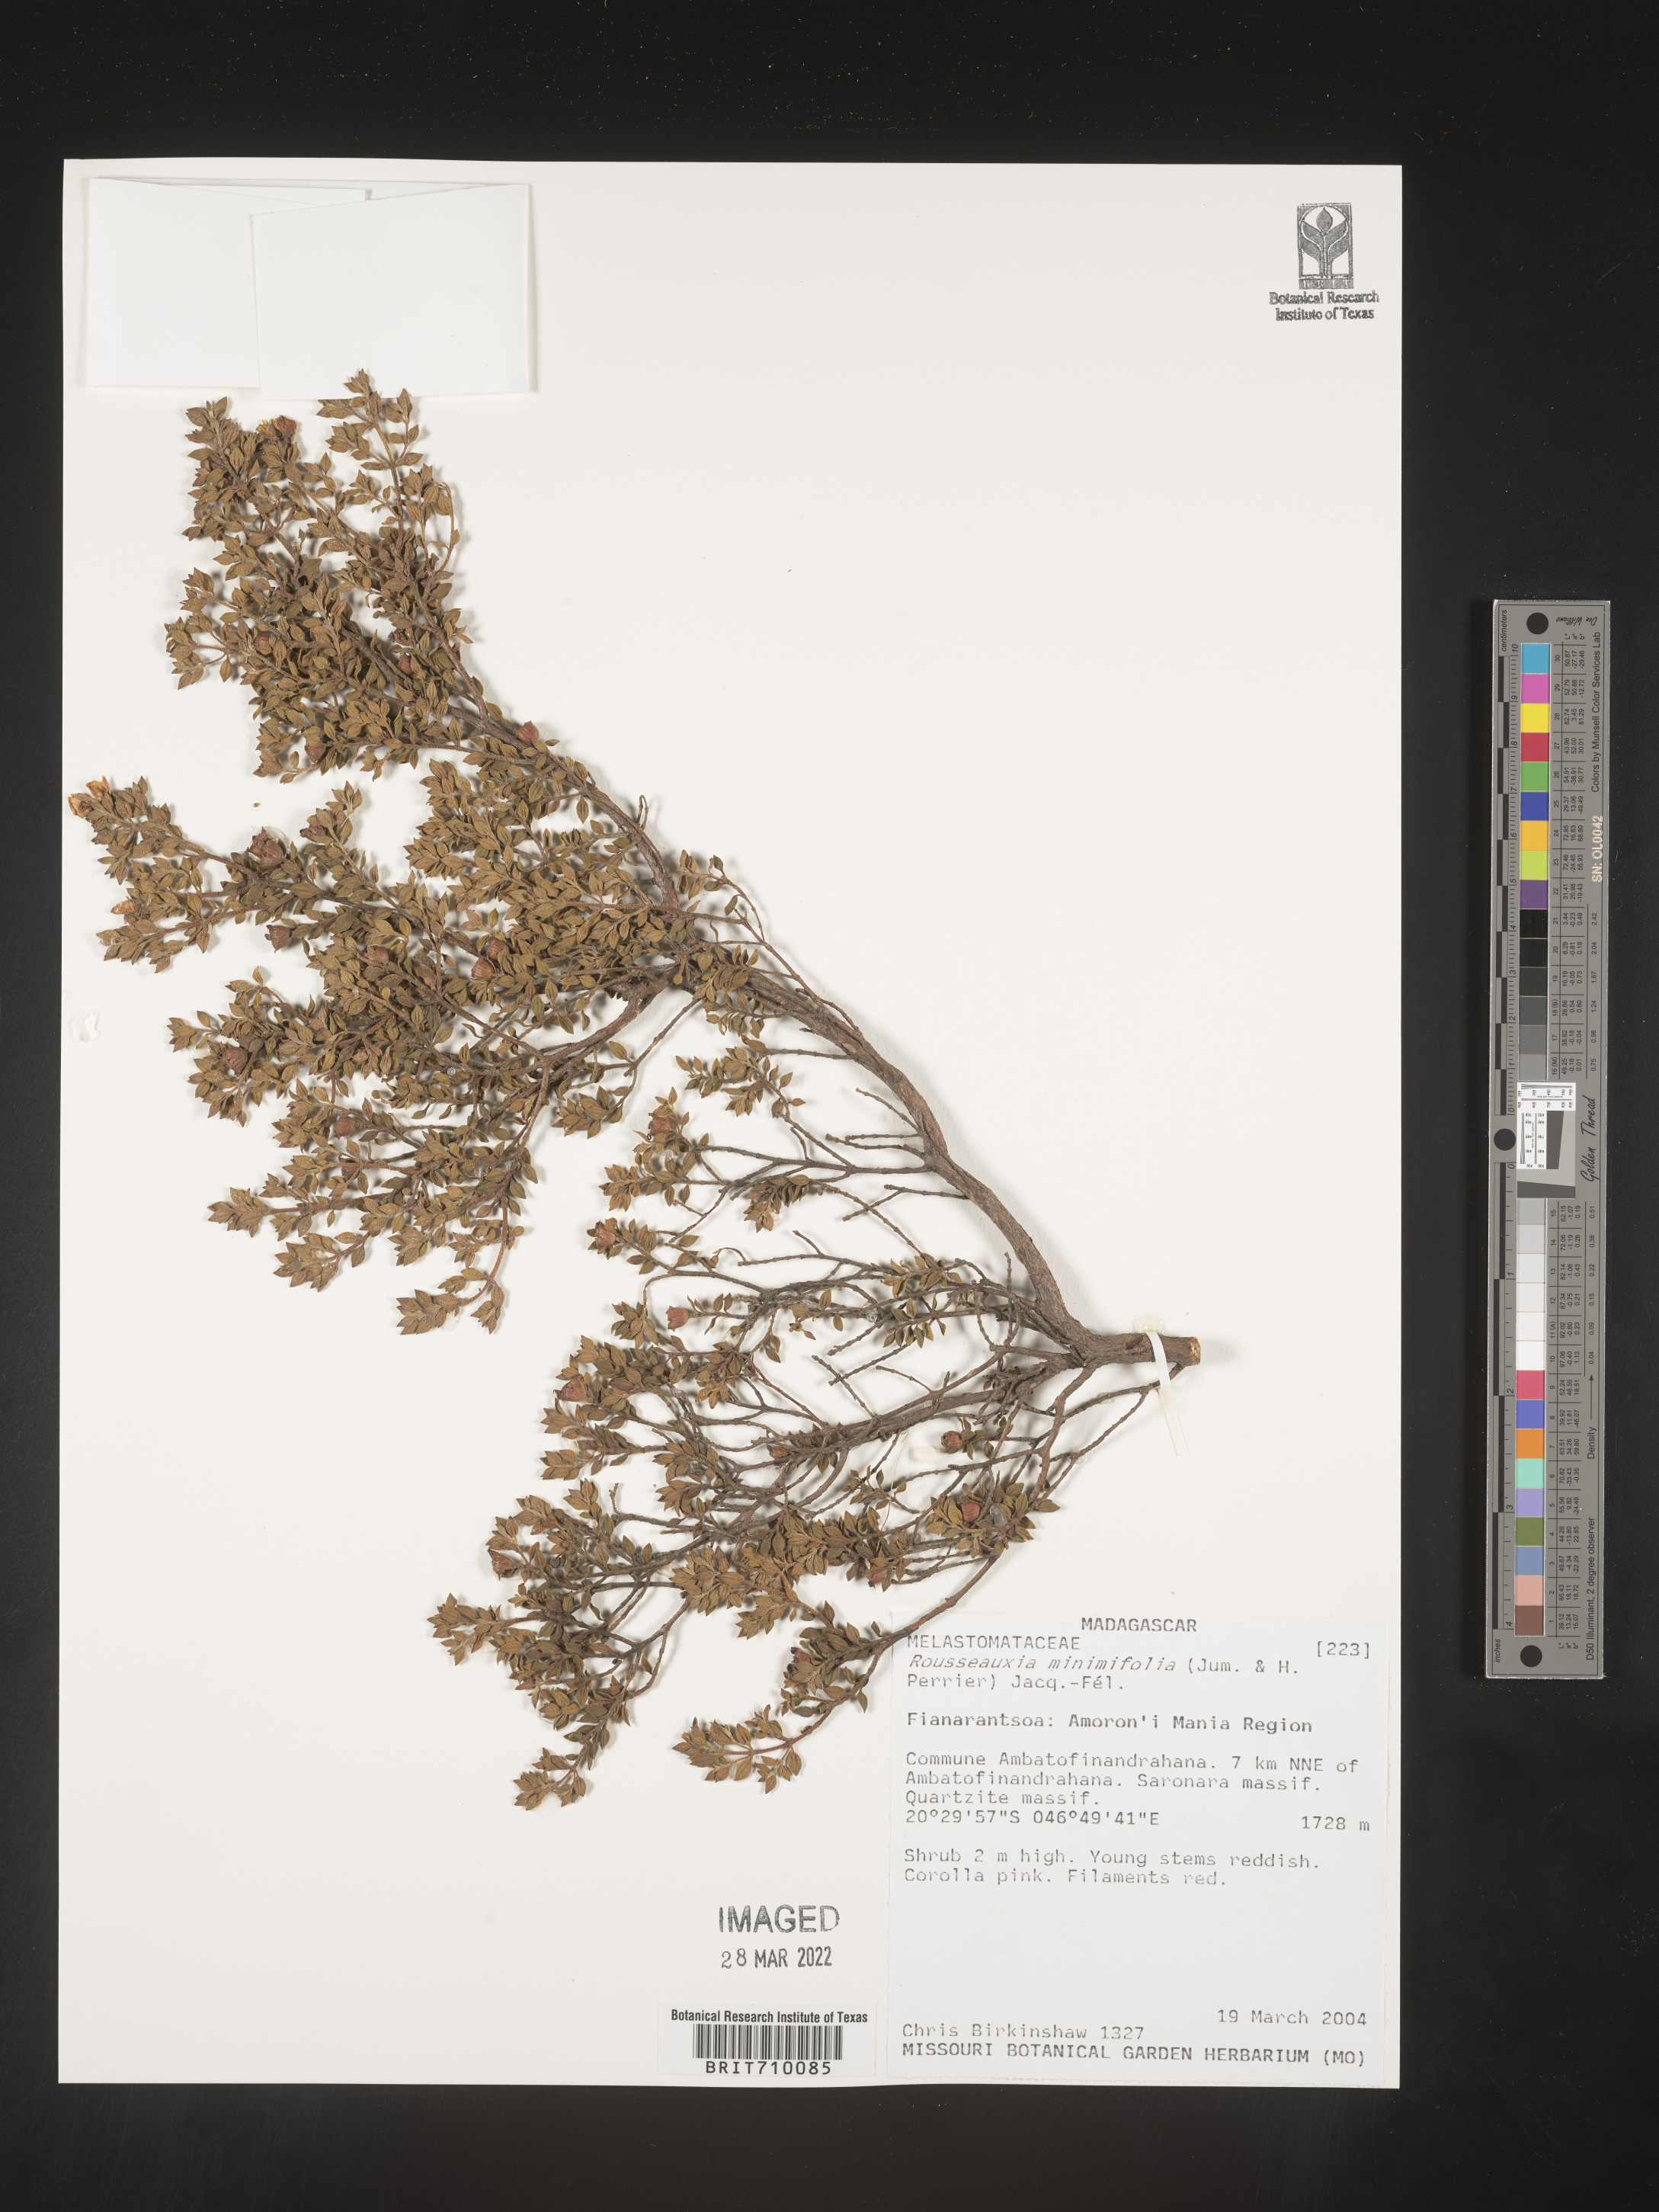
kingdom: Plantae
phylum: Tracheophyta
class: Magnoliopsida
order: Myrtales
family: Melastomataceae
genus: Rousseauxia
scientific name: Rousseauxia
